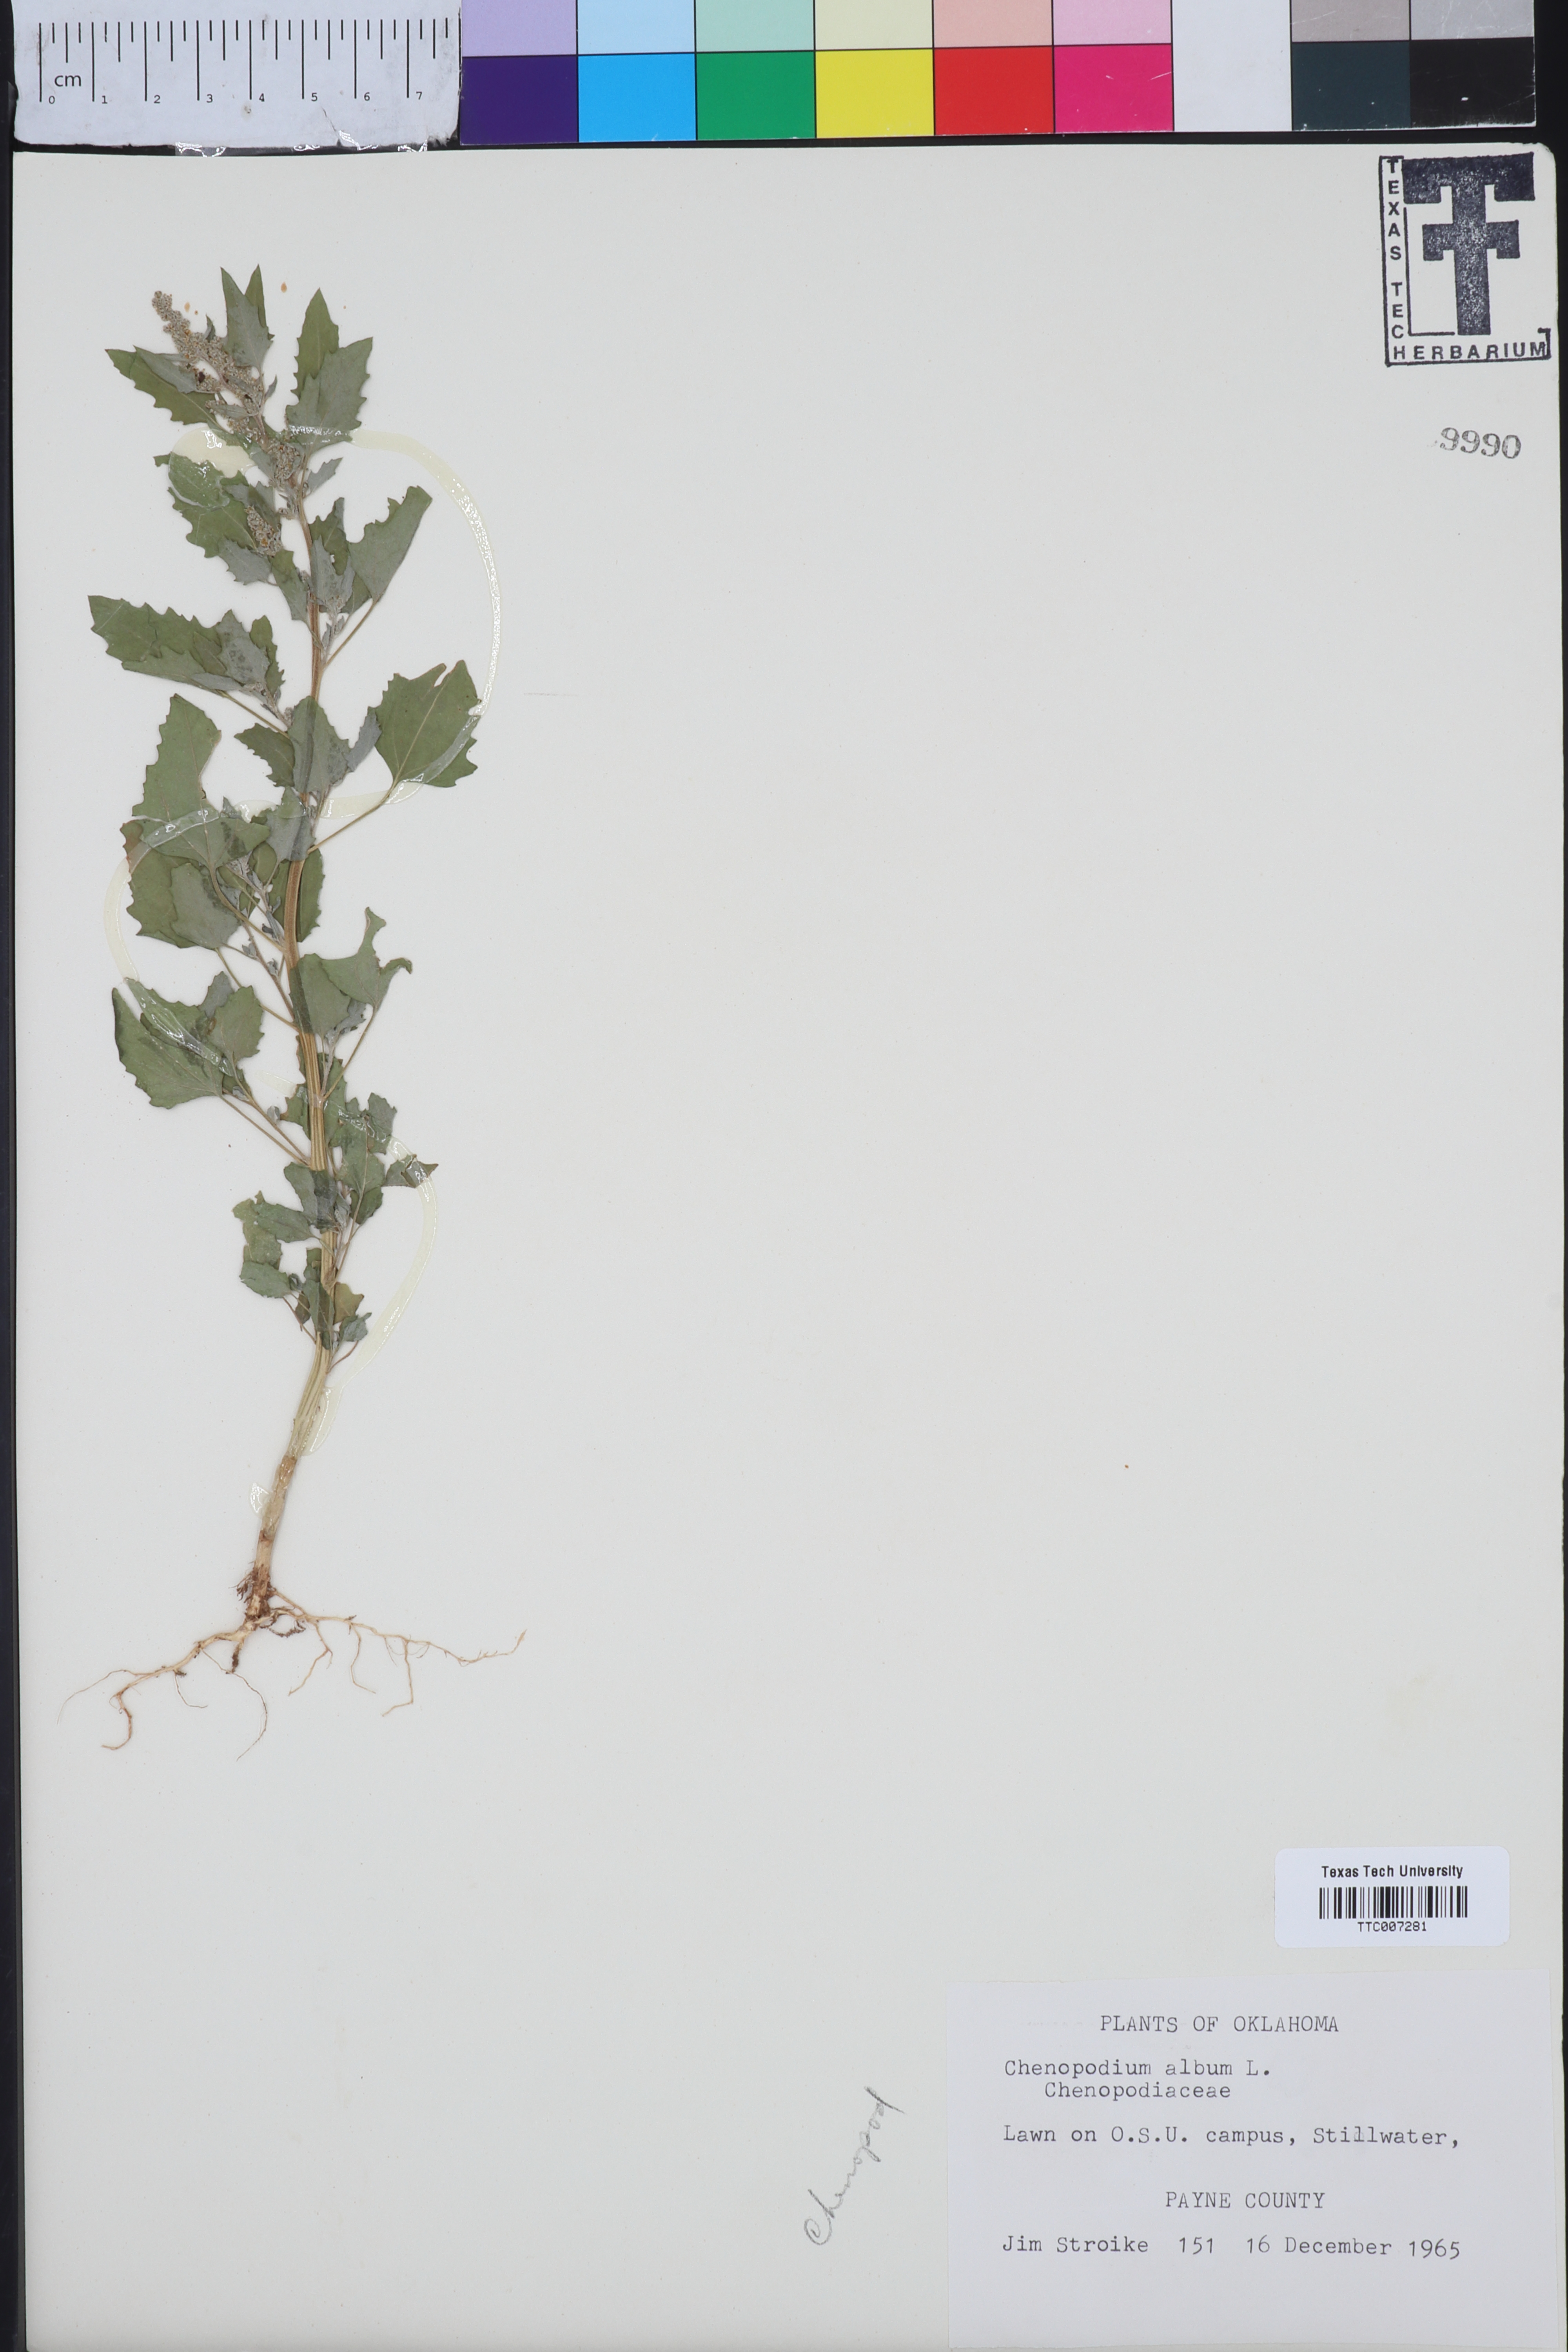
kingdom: Plantae
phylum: Tracheophyta
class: Magnoliopsida
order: Caryophyllales
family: Amaranthaceae
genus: Chenopodium
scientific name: Chenopodium album
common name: Fat-hen
